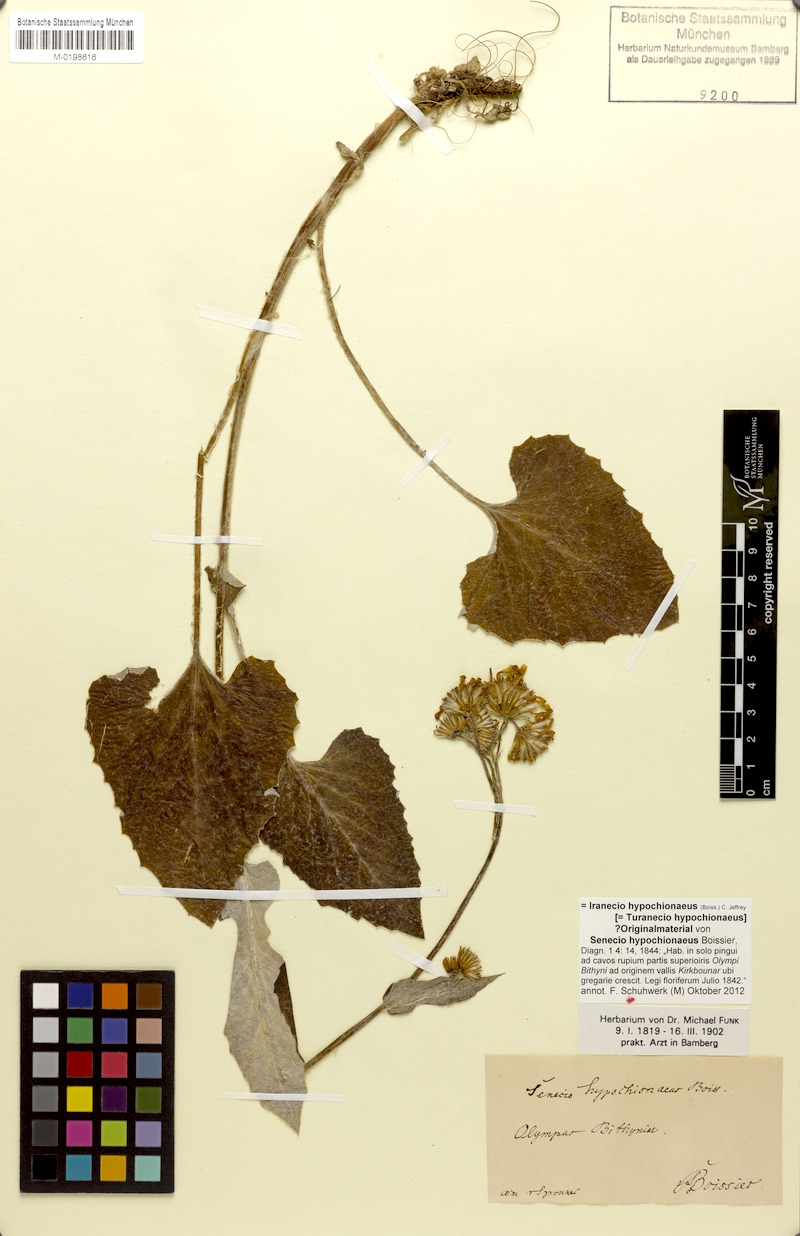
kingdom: Plantae
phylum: Tracheophyta
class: Magnoliopsida
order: Asterales
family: Asteraceae
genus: Turanecio
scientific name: Turanecio hypochionaeus
